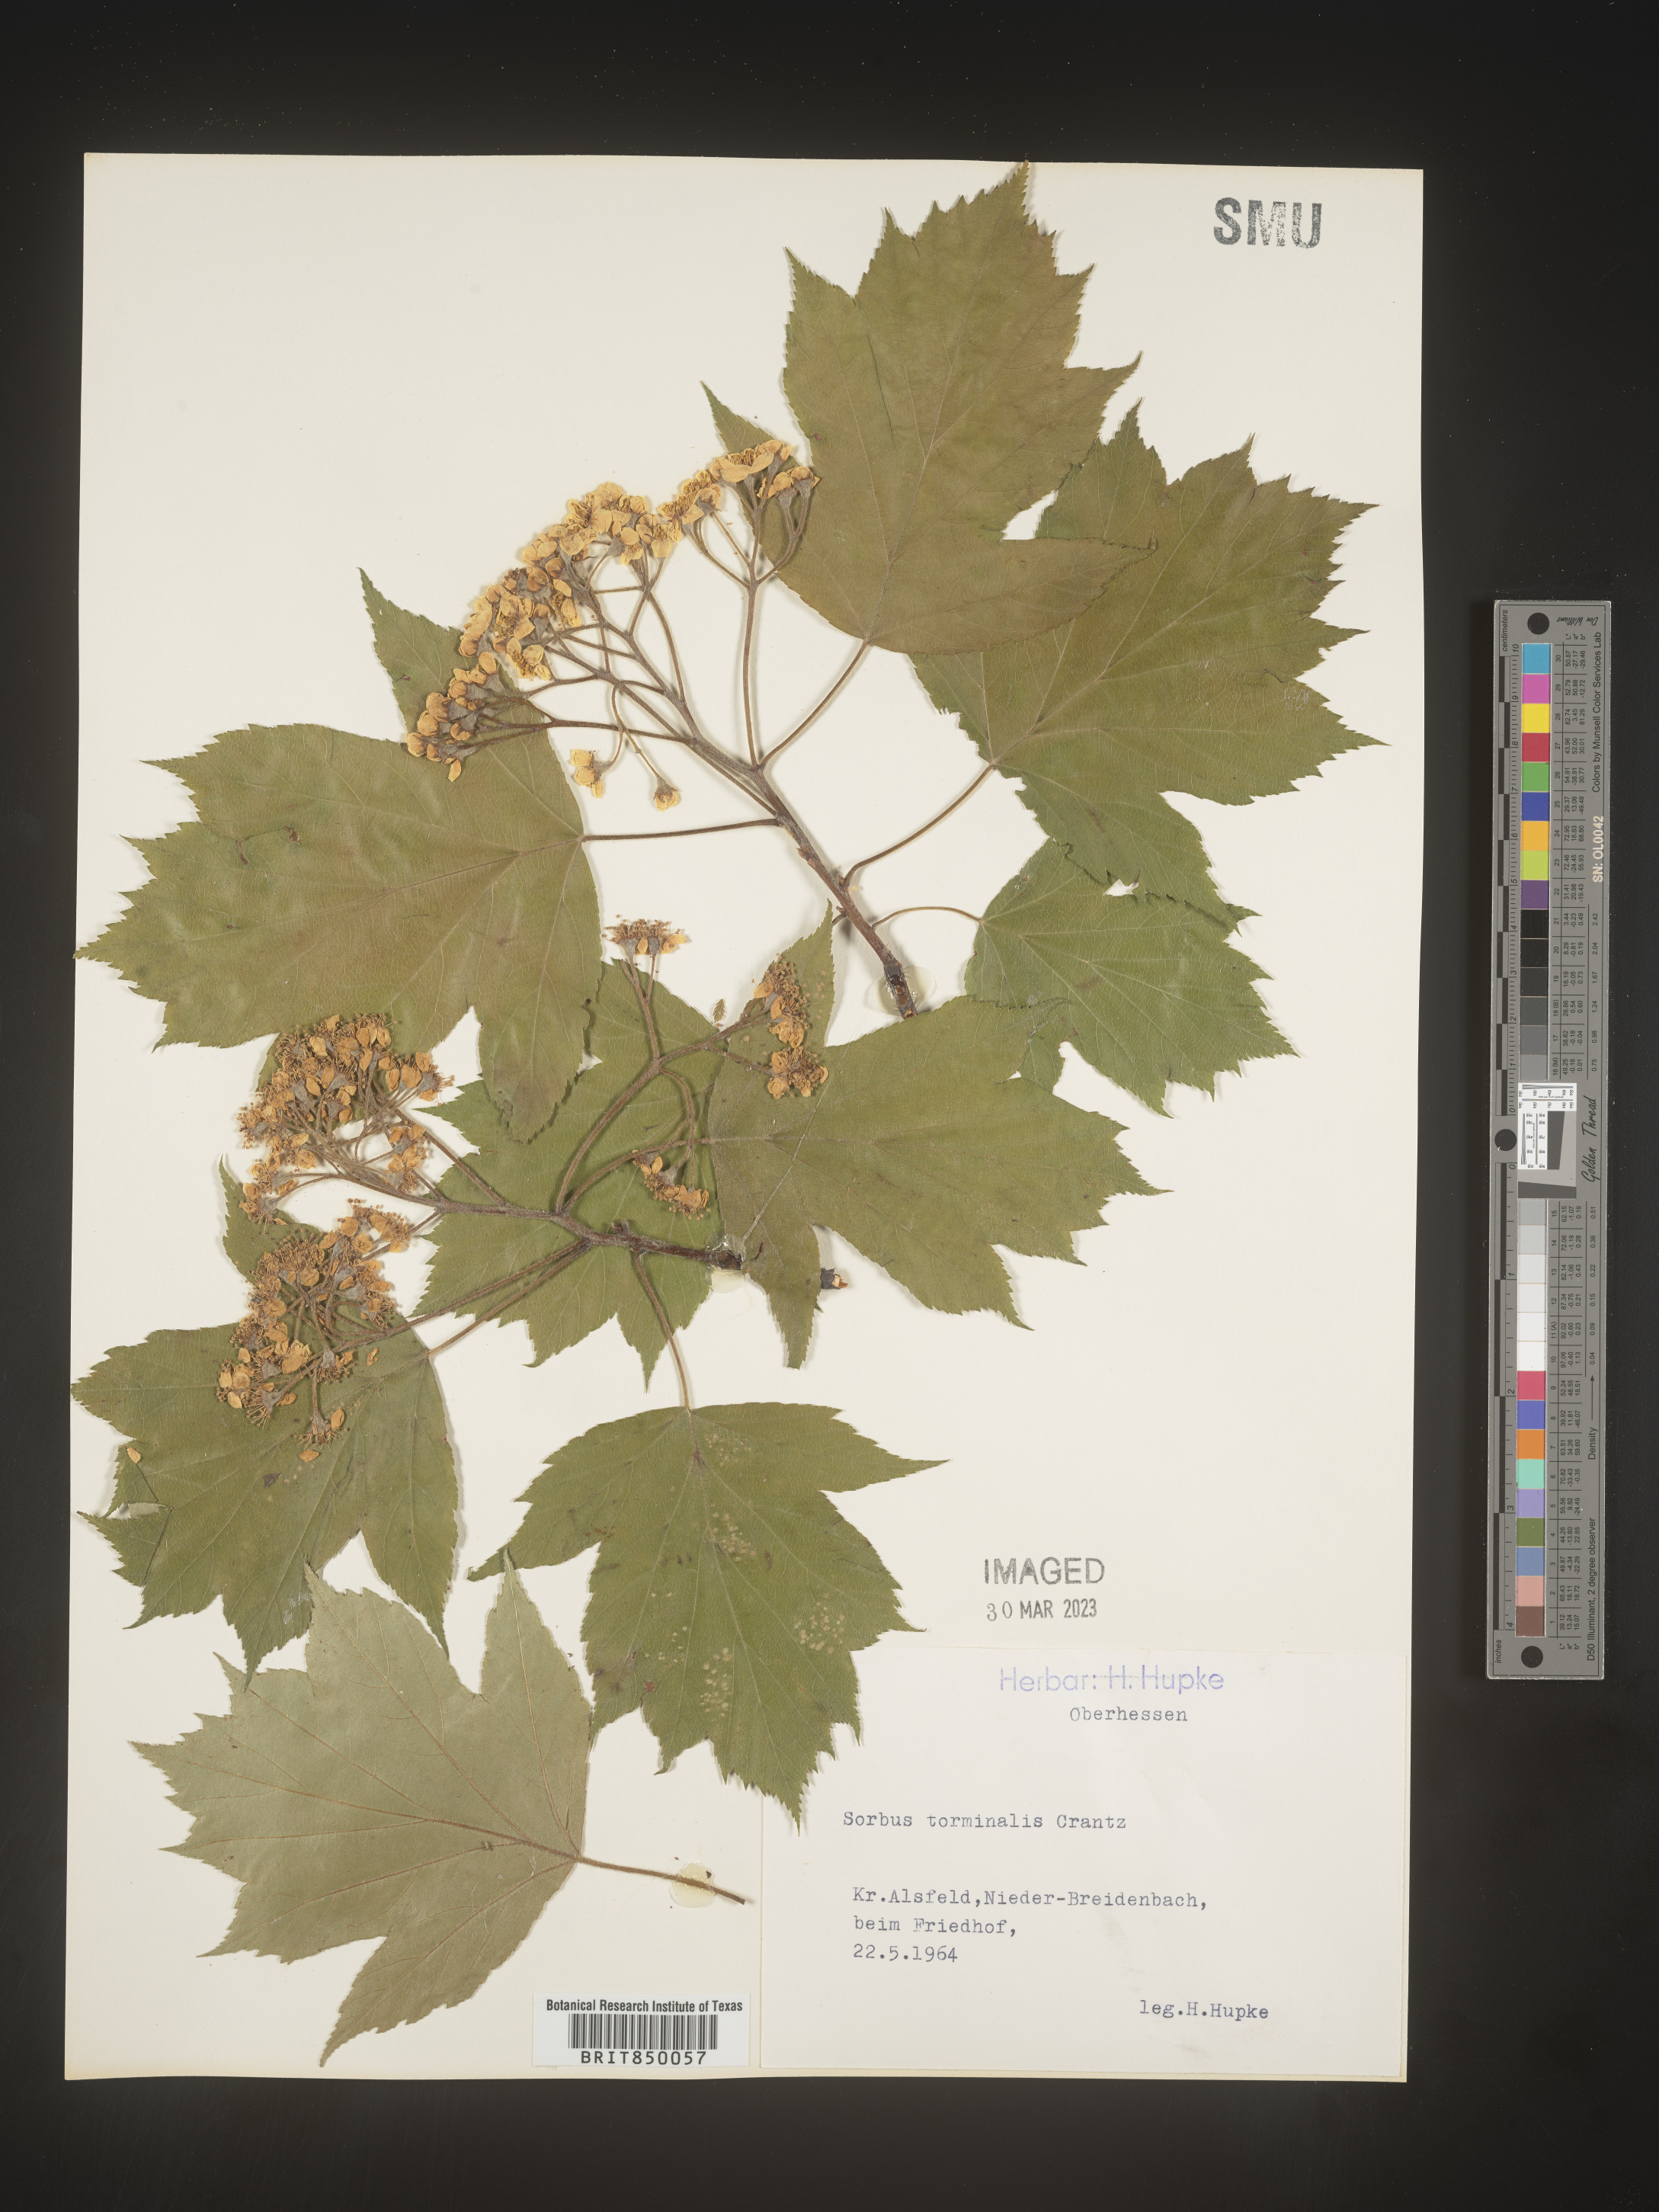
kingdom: Plantae
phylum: Tracheophyta
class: Magnoliopsida
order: Rosales
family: Rosaceae
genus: Sorbus
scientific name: Sorbus
